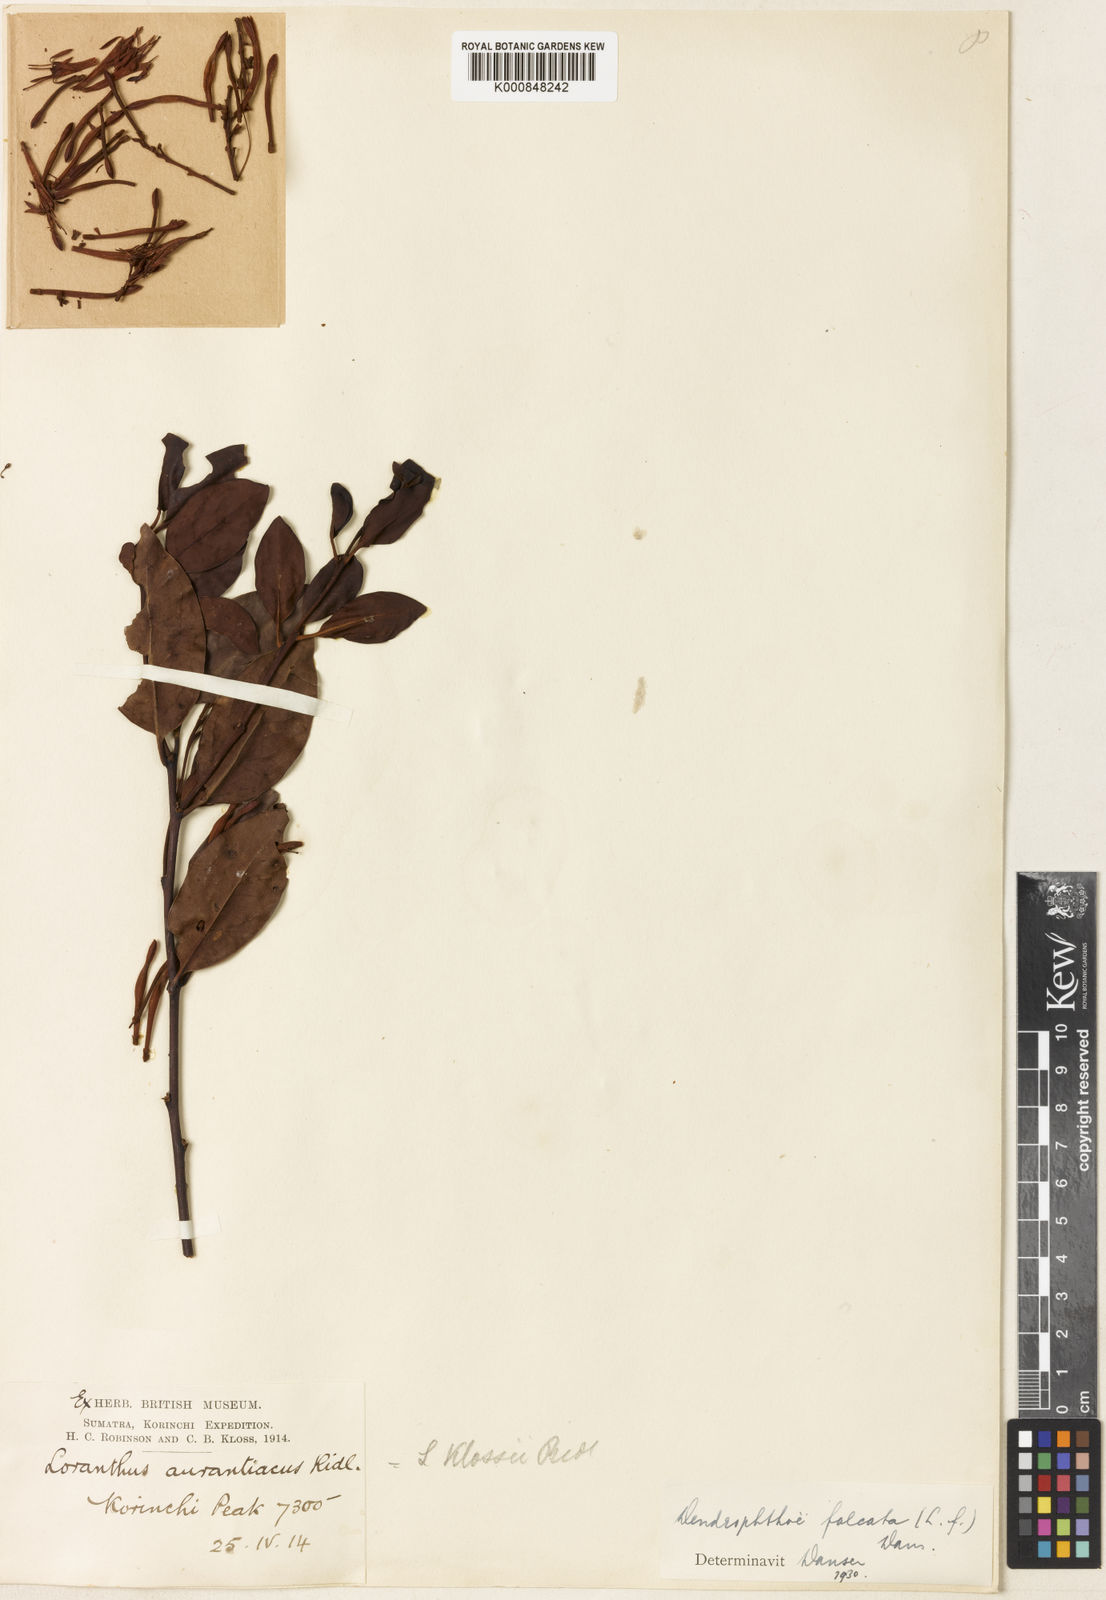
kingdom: Plantae
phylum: Tracheophyta
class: Magnoliopsida
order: Santalales
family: Loranthaceae
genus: Dendrophthoe
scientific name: Dendrophthoe
